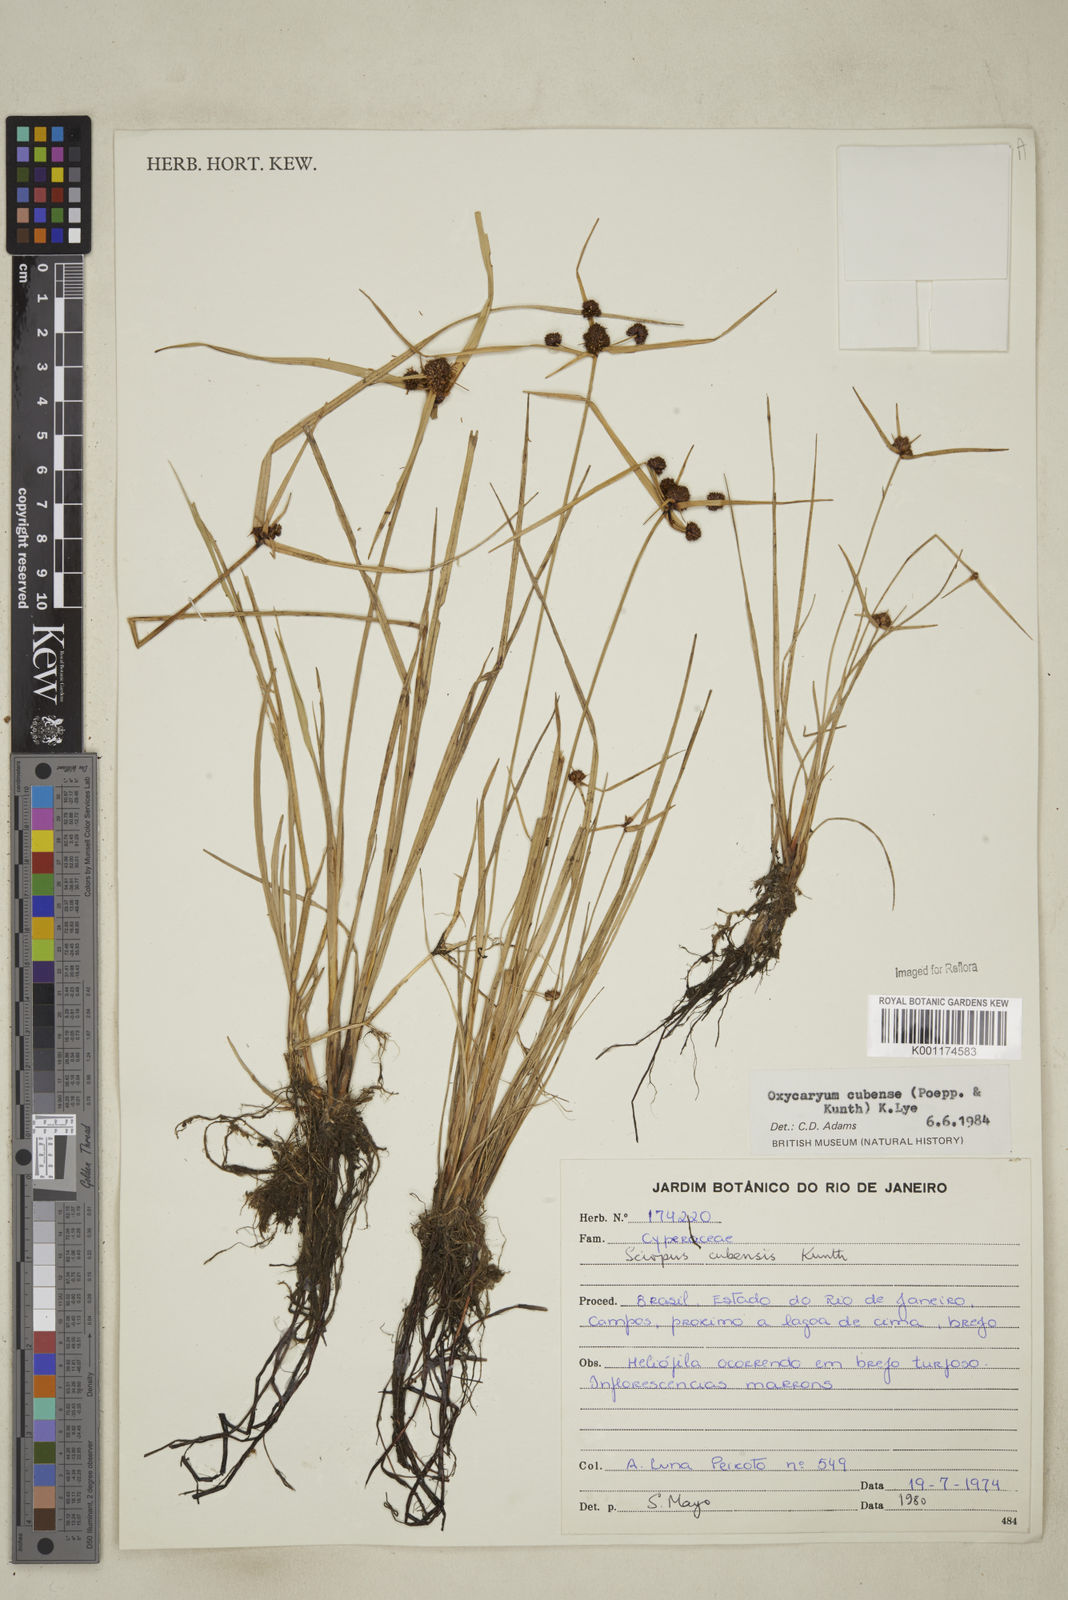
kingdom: Plantae
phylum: Tracheophyta
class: Liliopsida
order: Poales
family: Cyperaceae
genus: Cyperus
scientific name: Cyperus elegans
